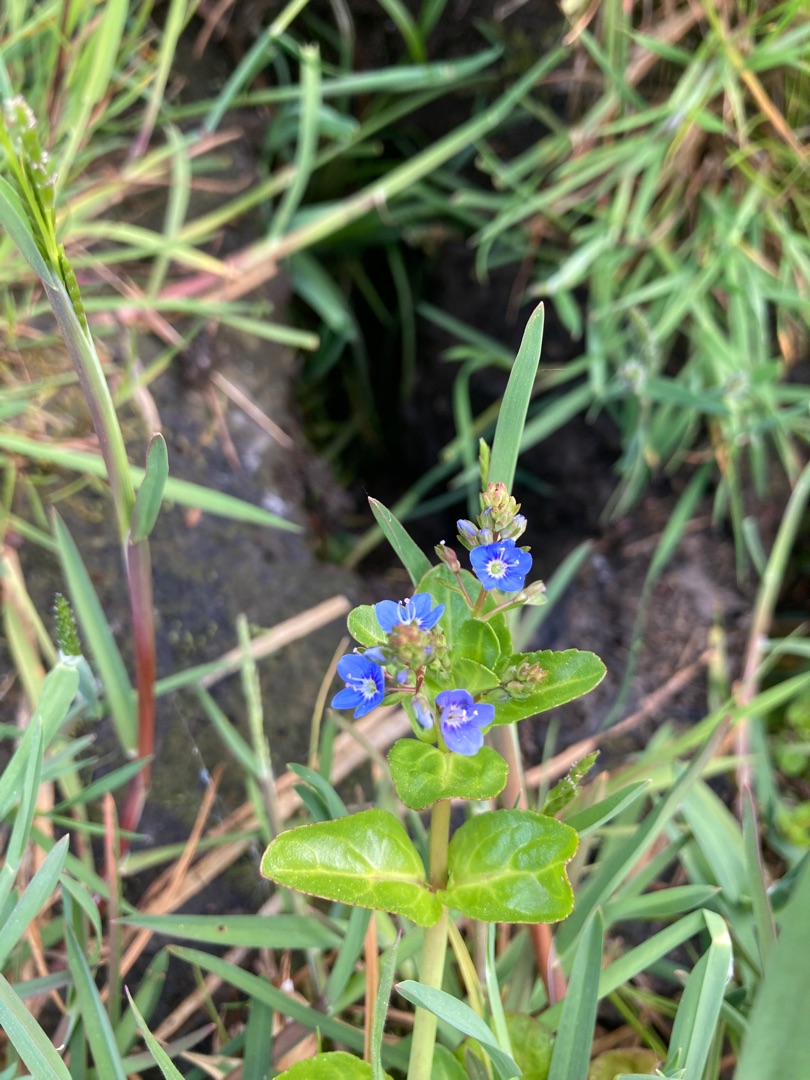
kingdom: Plantae
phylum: Tracheophyta
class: Magnoliopsida
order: Lamiales
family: Plantaginaceae
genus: Veronica
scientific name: Veronica beccabunga
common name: Tykbladet ærenpris
